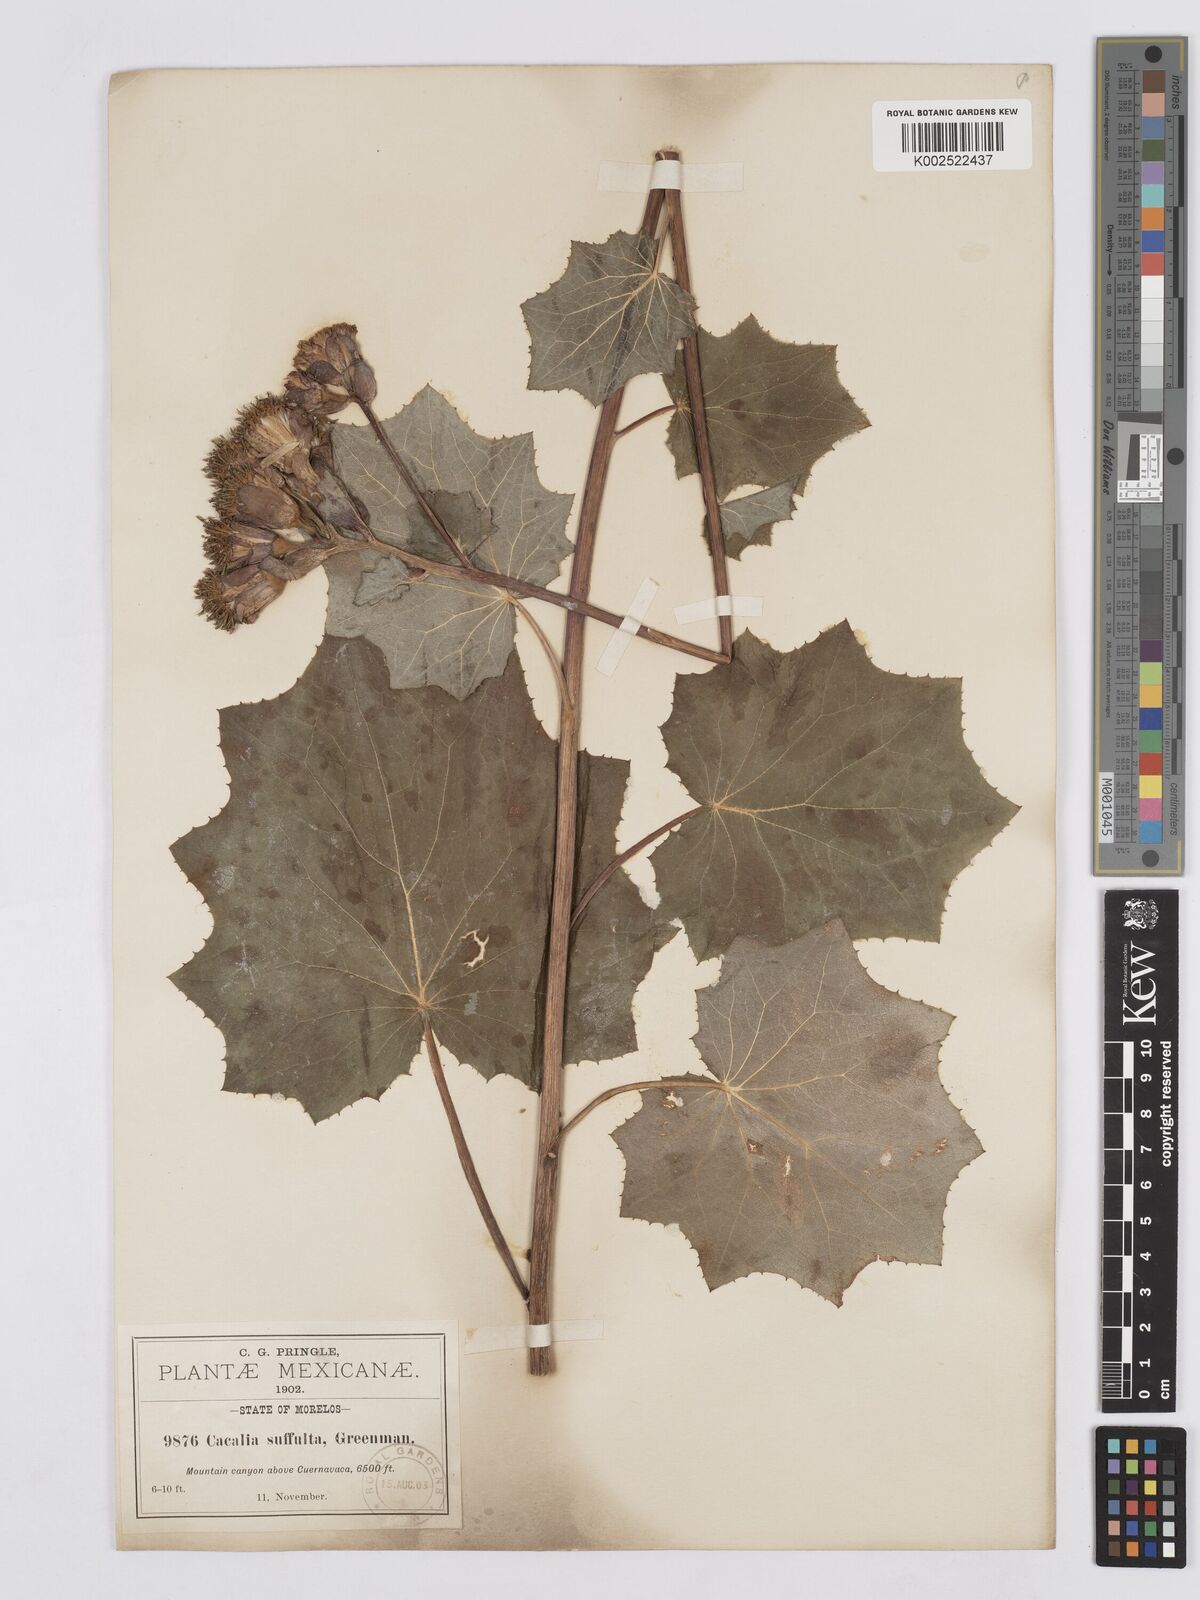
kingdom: Plantae
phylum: Tracheophyta
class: Magnoliopsida
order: Asterales
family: Asteraceae
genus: Roldana
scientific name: Roldana suffulta
